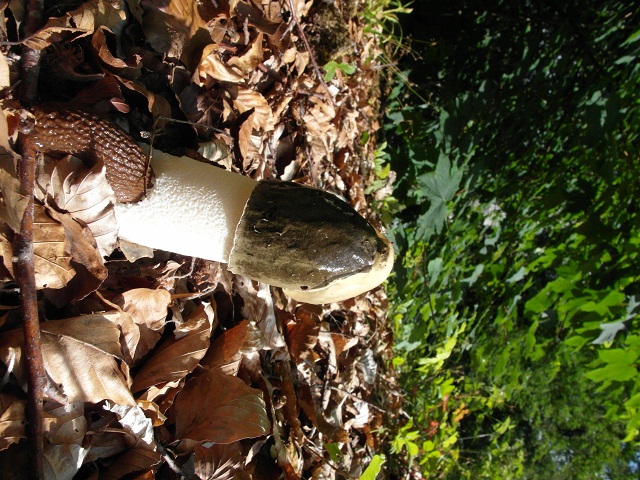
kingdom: Fungi
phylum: Basidiomycota
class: Agaricomycetes
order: Phallales
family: Phallaceae
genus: Phallus
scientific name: Phallus impudicus
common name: almindelig stinksvamp
